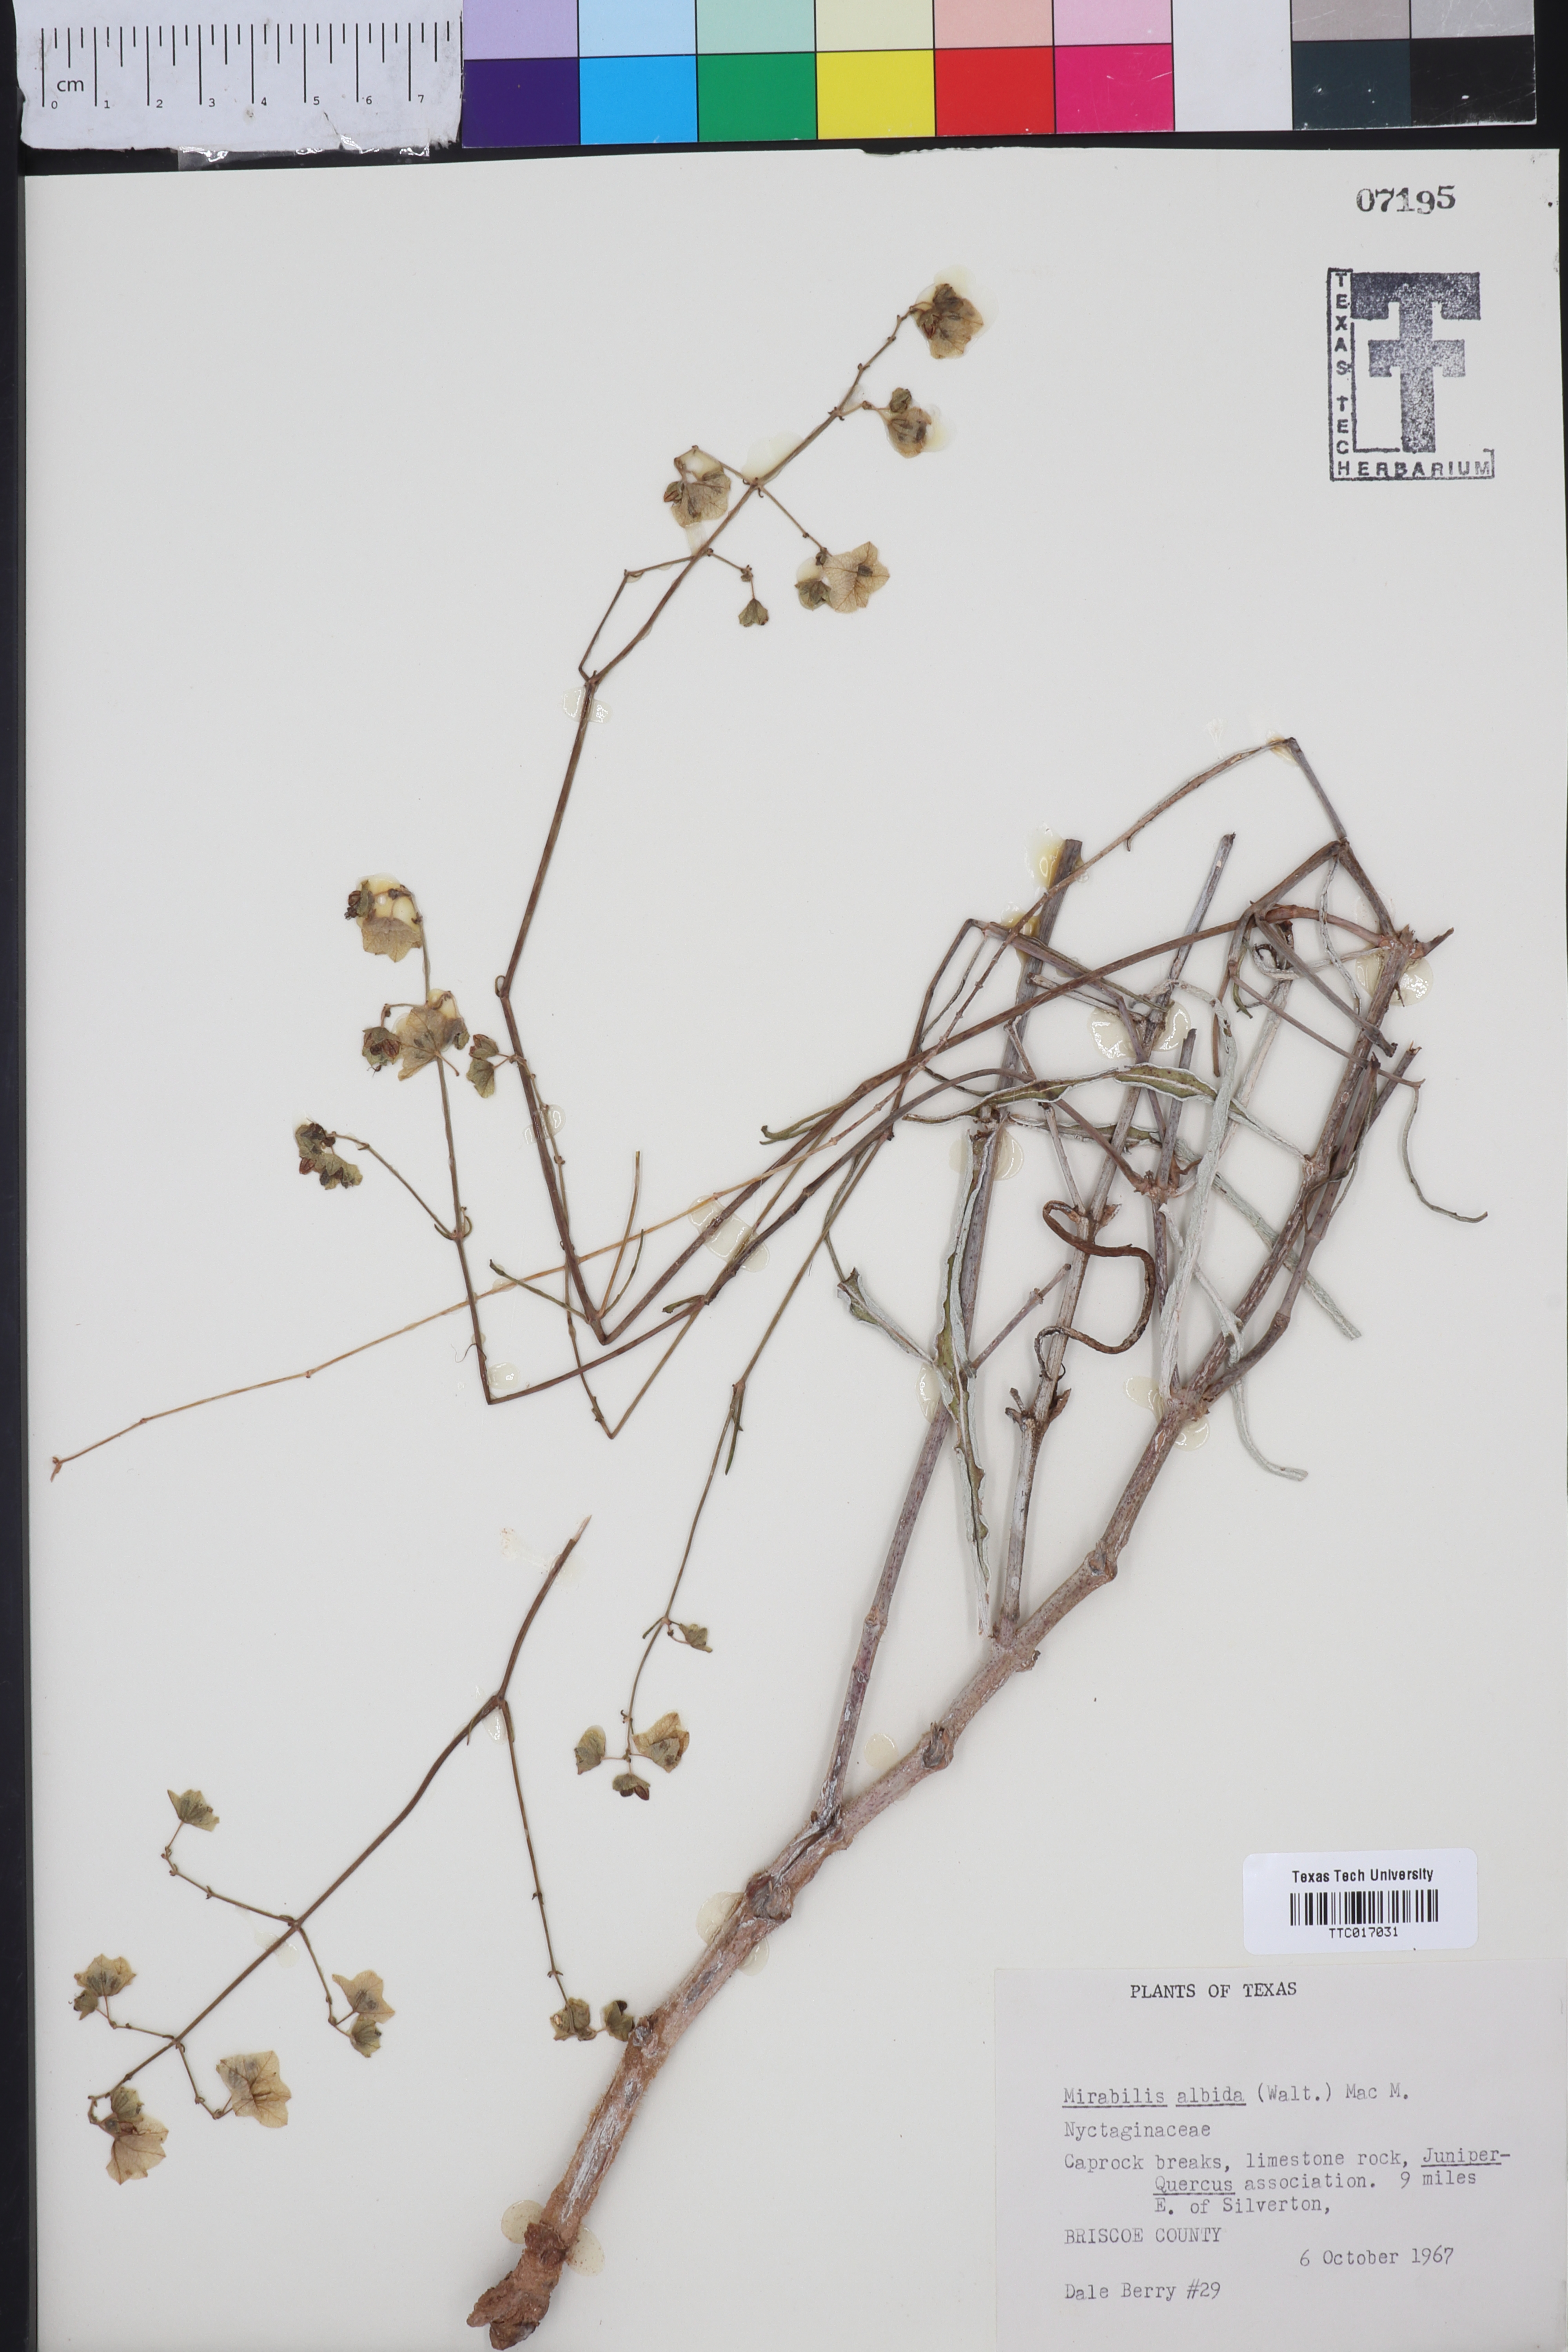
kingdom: Plantae
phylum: Tracheophyta
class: Magnoliopsida
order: Caryophyllales
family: Nyctaginaceae
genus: Mirabilis
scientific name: Mirabilis albida
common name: Hairy four-o'clock
